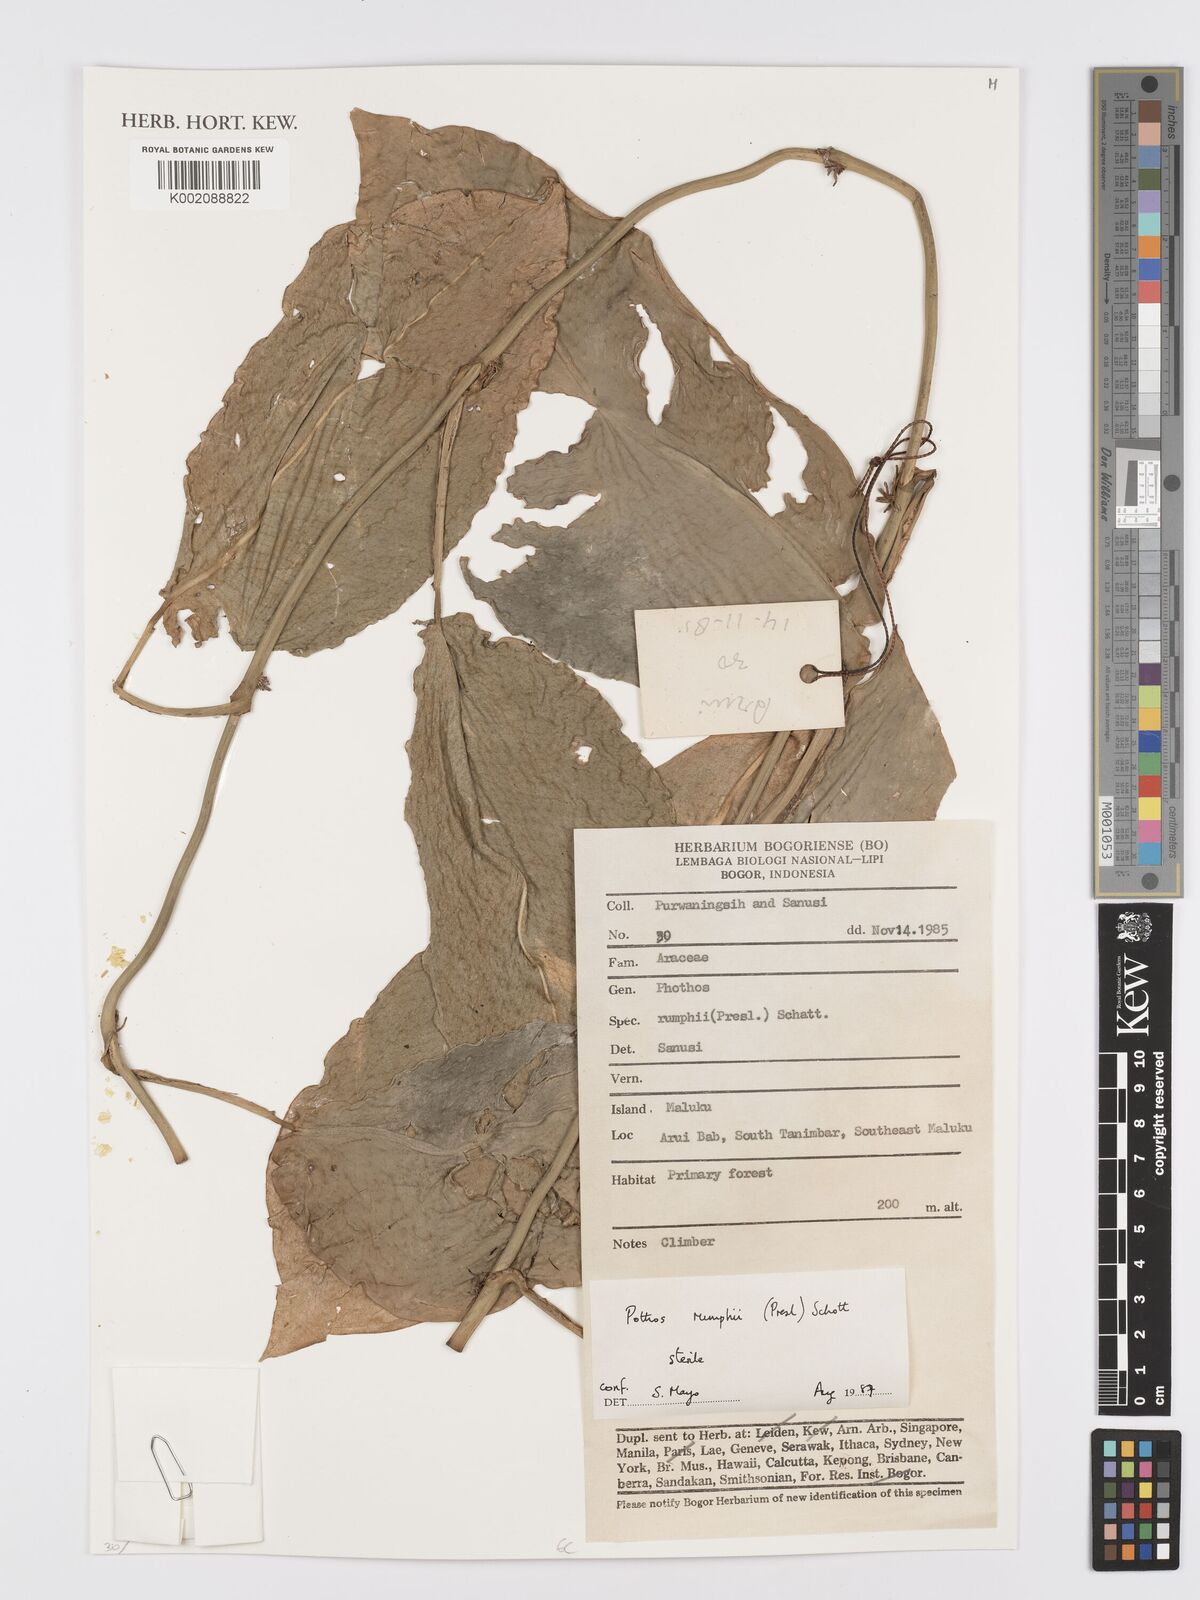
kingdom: Plantae
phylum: Tracheophyta
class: Liliopsida
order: Alismatales
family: Araceae
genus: Pothos
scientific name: Pothos tener
